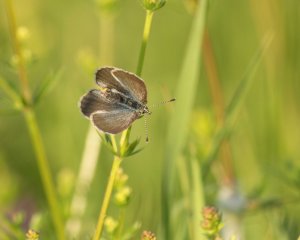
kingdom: Animalia
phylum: Arthropoda
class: Insecta
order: Lepidoptera
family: Lycaenidae
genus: Glaucopsyche
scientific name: Glaucopsyche lygdamus
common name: Silvery Blue
